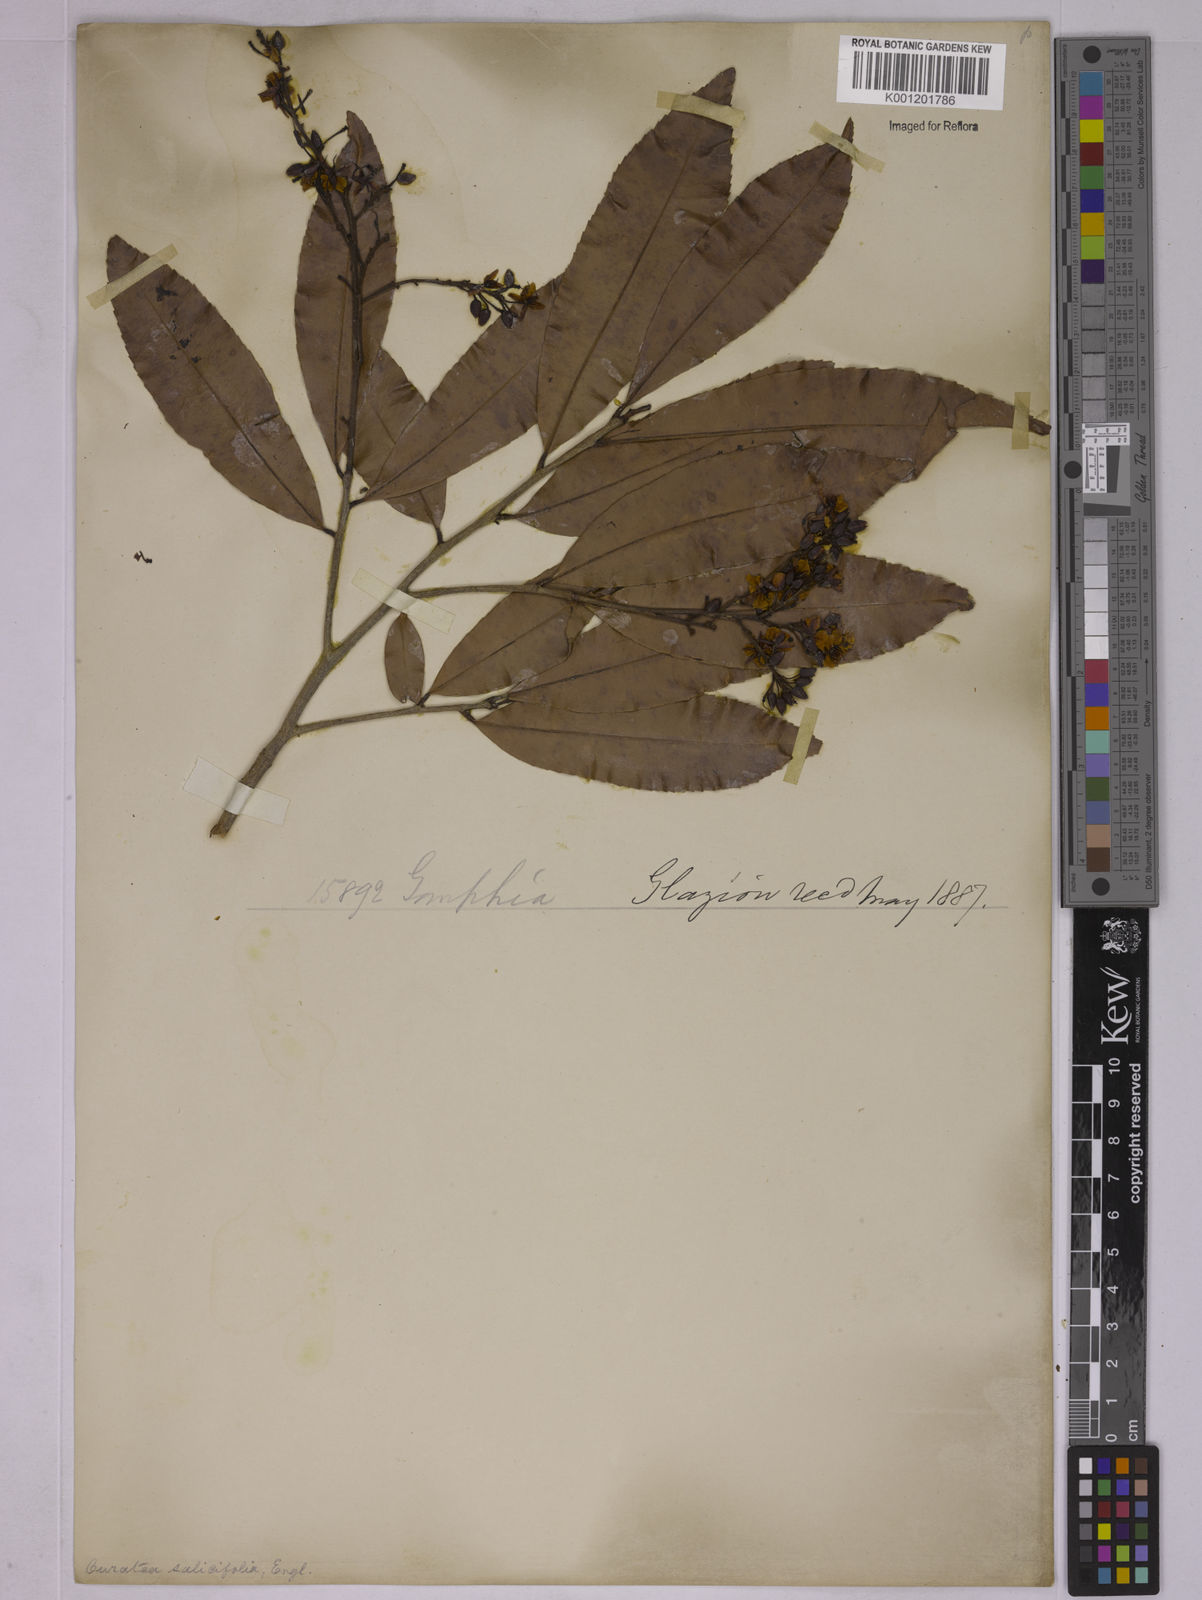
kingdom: Plantae
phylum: Tracheophyta
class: Magnoliopsida
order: Malpighiales
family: Ochnaceae
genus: Ouratea
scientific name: Ouratea salicifolia
